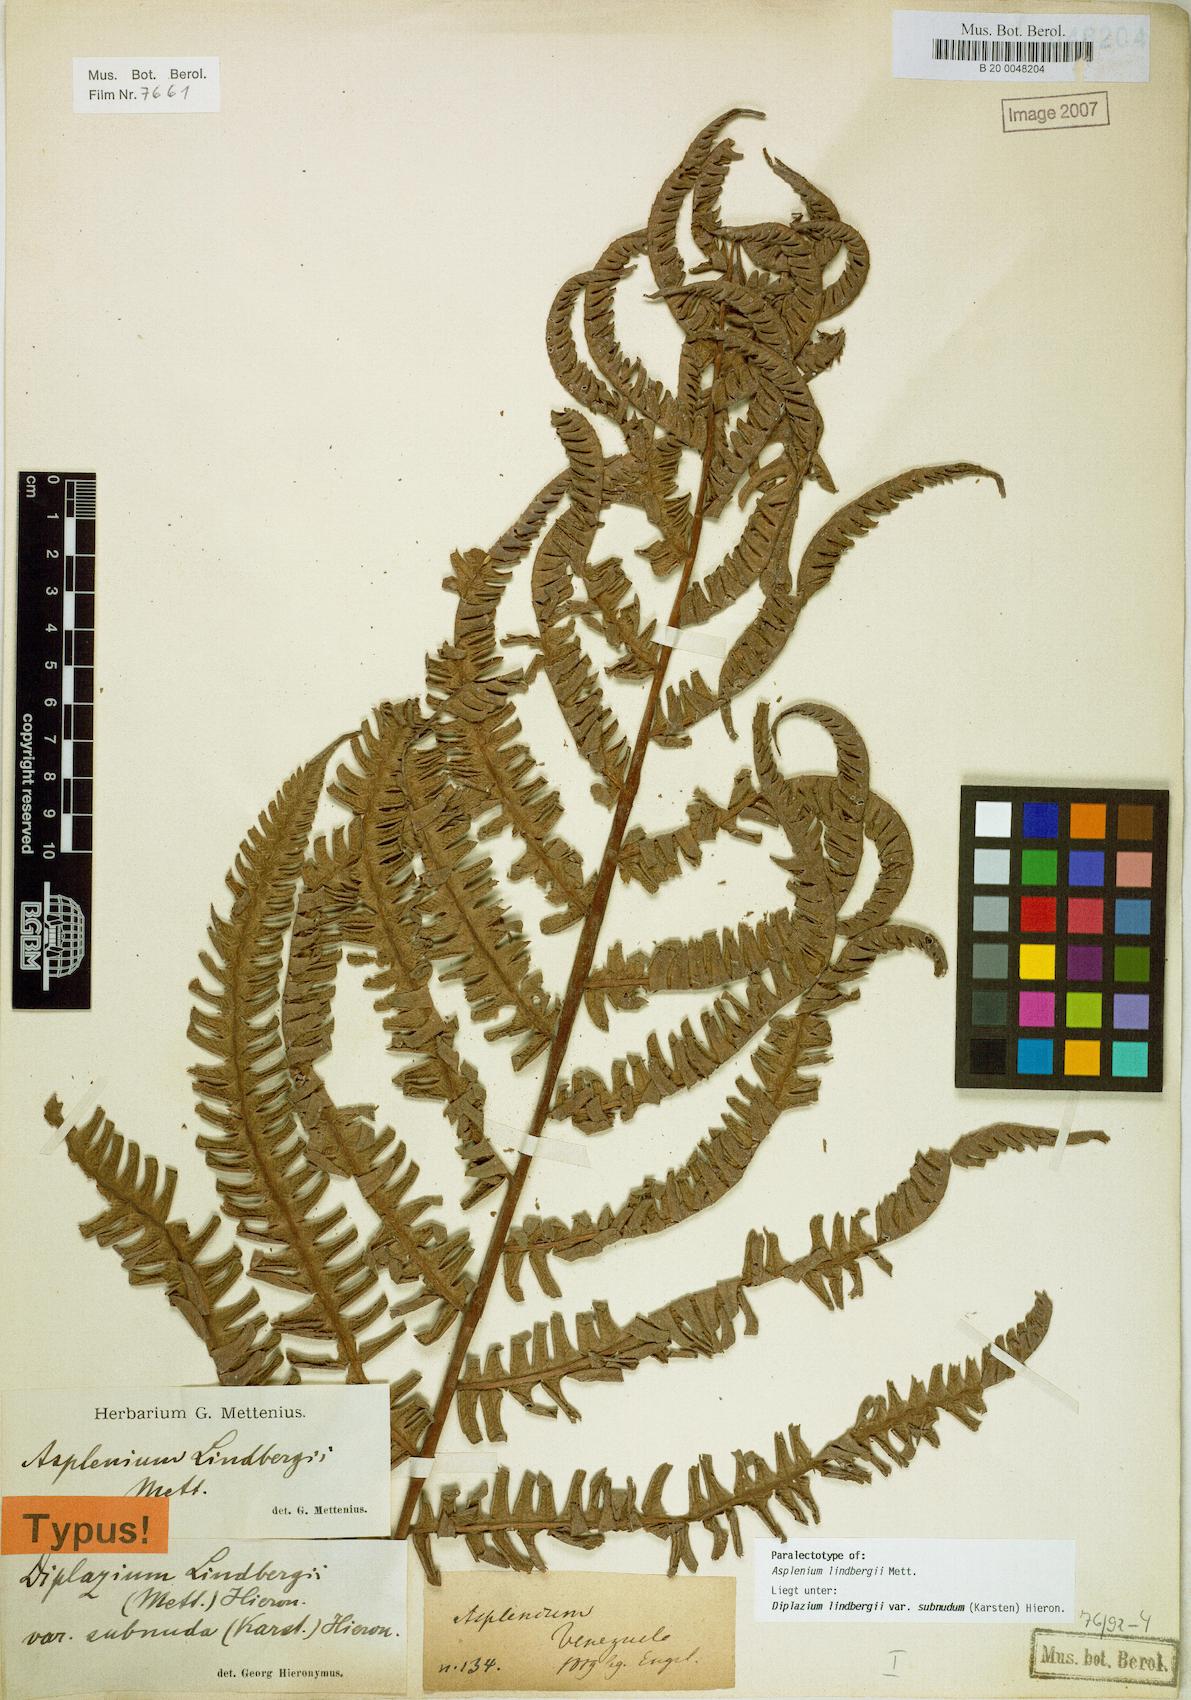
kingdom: Plantae
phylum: Tracheophyta
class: Polypodiopsida
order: Polypodiales
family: Athyriaceae
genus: Diplazium
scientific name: Diplazium lindbergii
